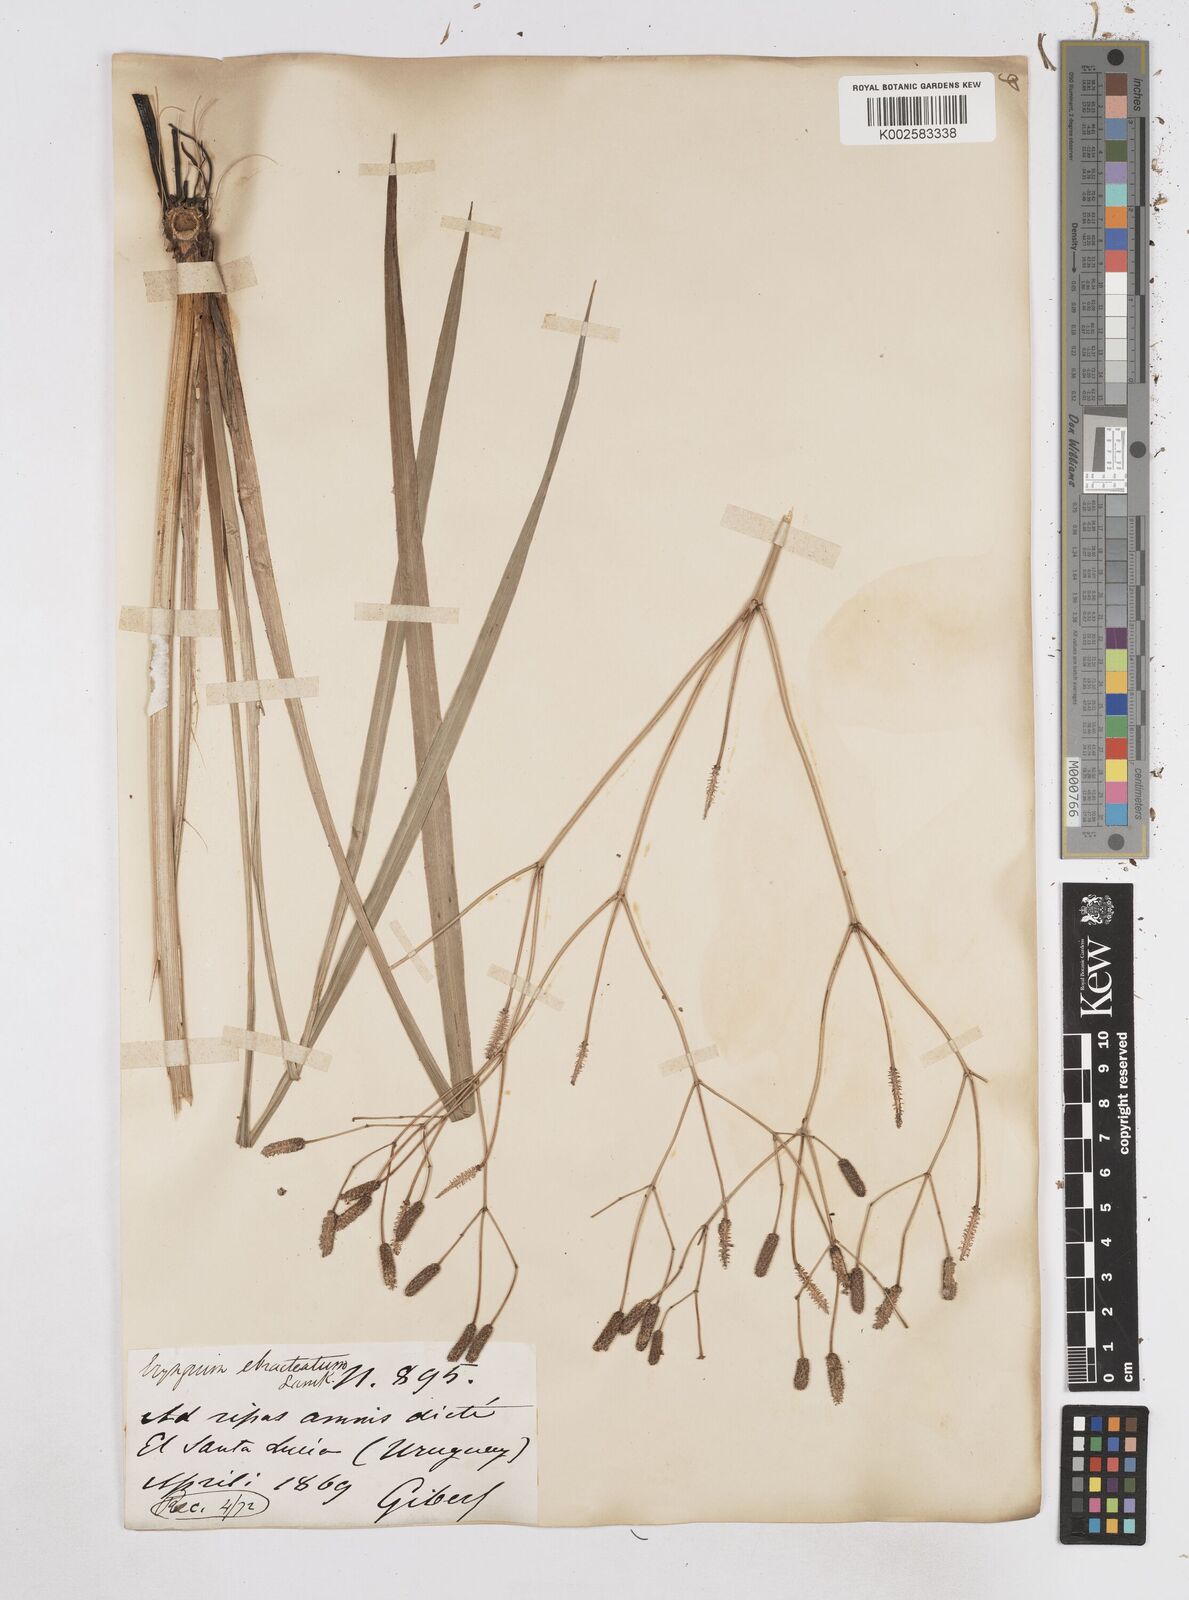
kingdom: Plantae
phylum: Tracheophyta
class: Magnoliopsida
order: Apiales
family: Apiaceae
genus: Eryngium
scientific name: Eryngium ebracteatum
